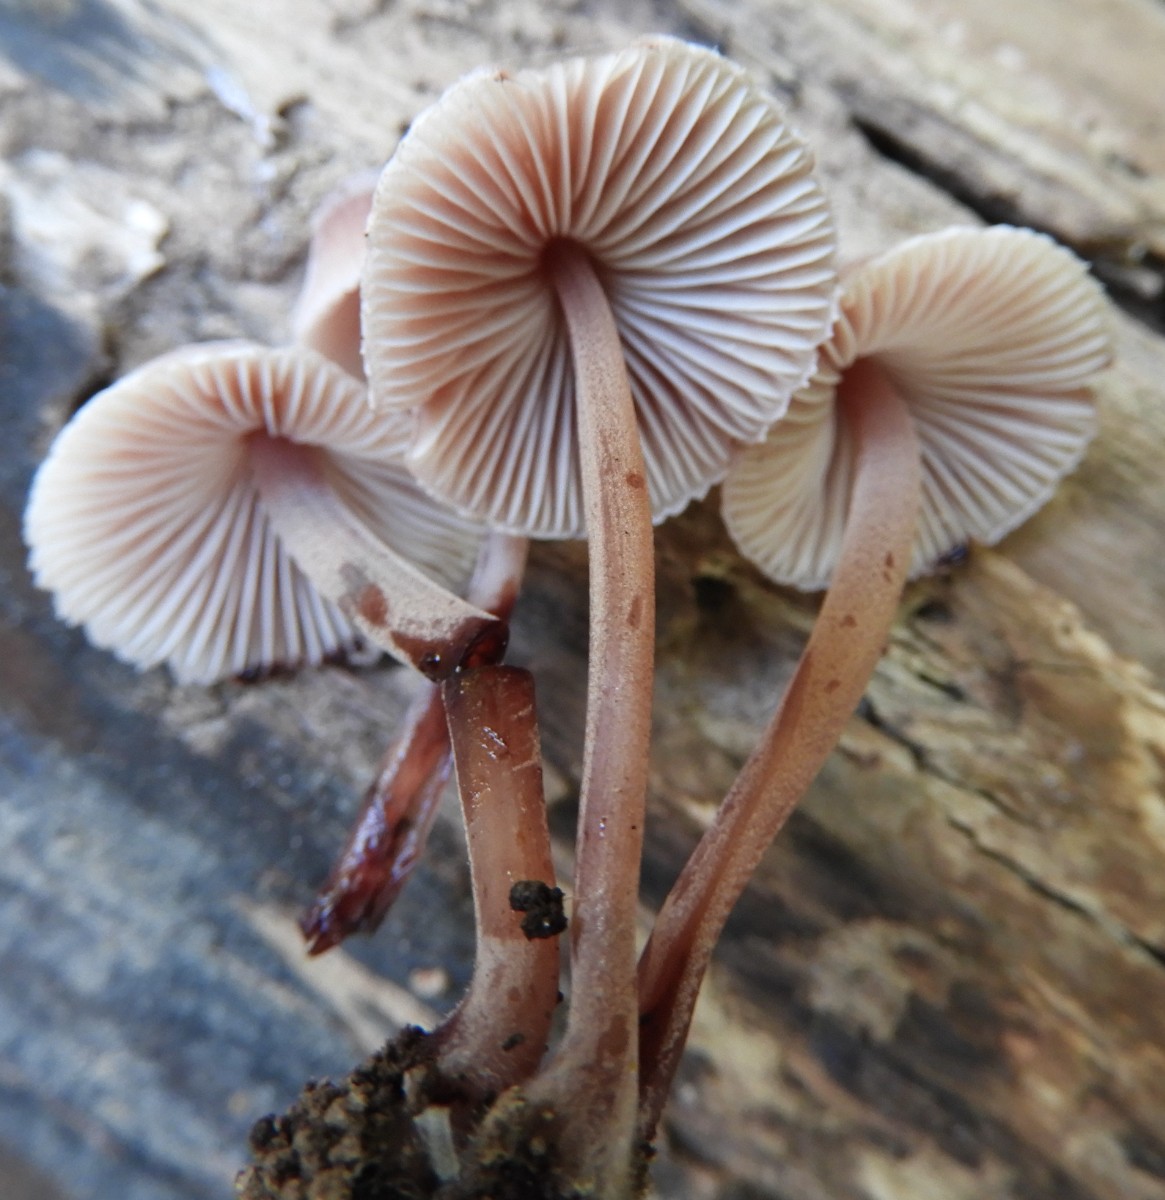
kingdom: Fungi
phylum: Basidiomycota
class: Agaricomycetes
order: Agaricales
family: Mycenaceae
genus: Mycena
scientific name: Mycena haematopus
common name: blødende huesvamp
